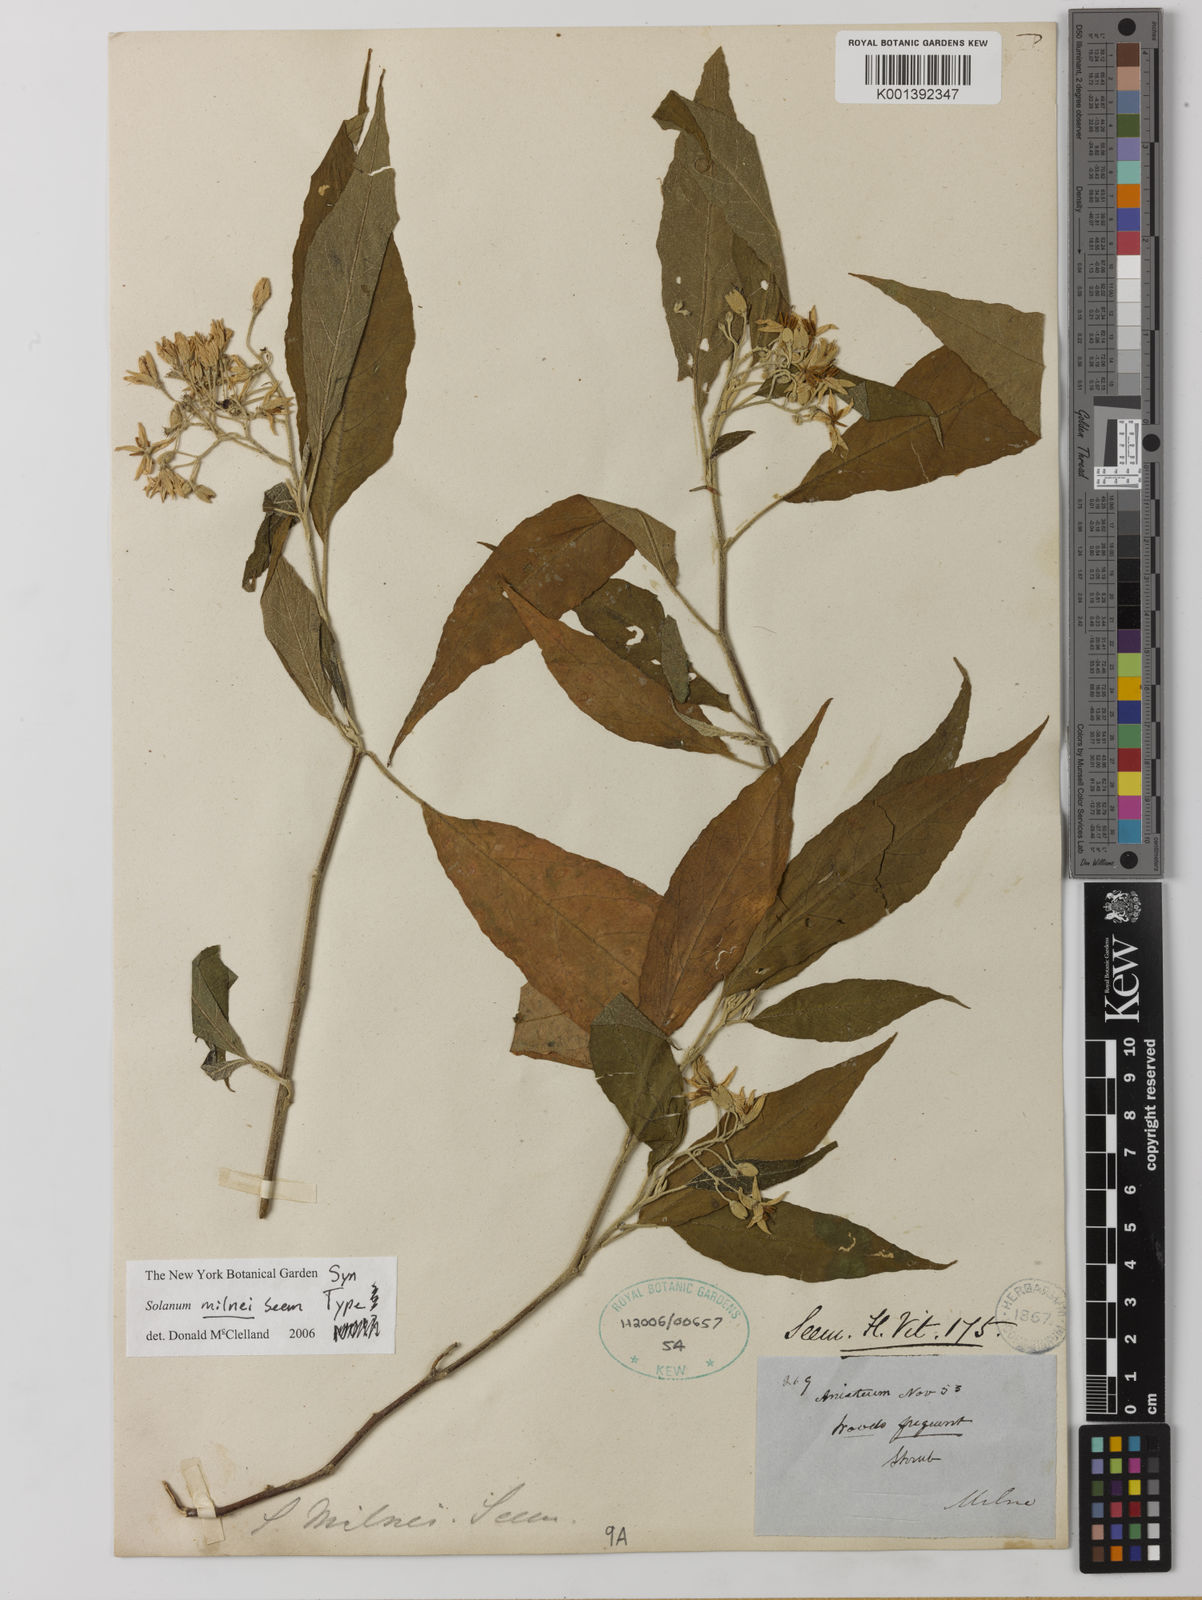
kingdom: Plantae
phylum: Tracheophyta
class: Magnoliopsida
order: Solanales
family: Solanaceae
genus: Solanum
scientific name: Solanum milnei
